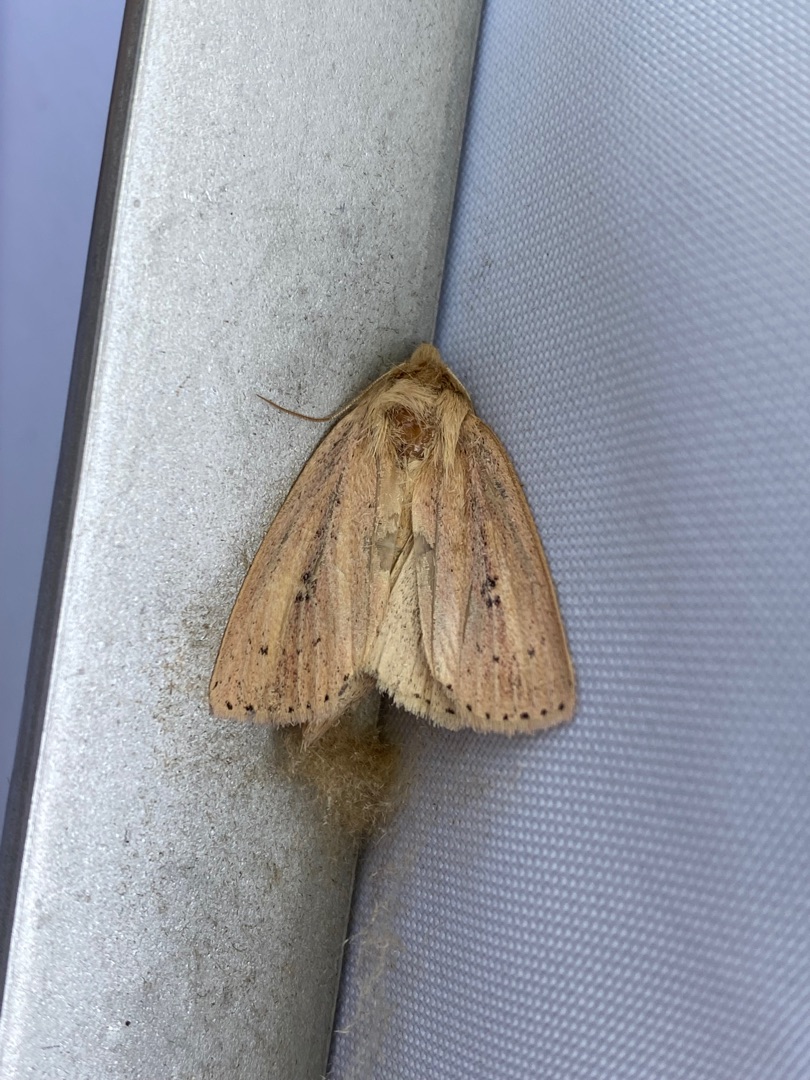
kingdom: Animalia
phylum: Arthropoda
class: Insecta
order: Lepidoptera
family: Noctuidae
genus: Globia
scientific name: Globia sparganii
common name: Sømprikket stængelborer
